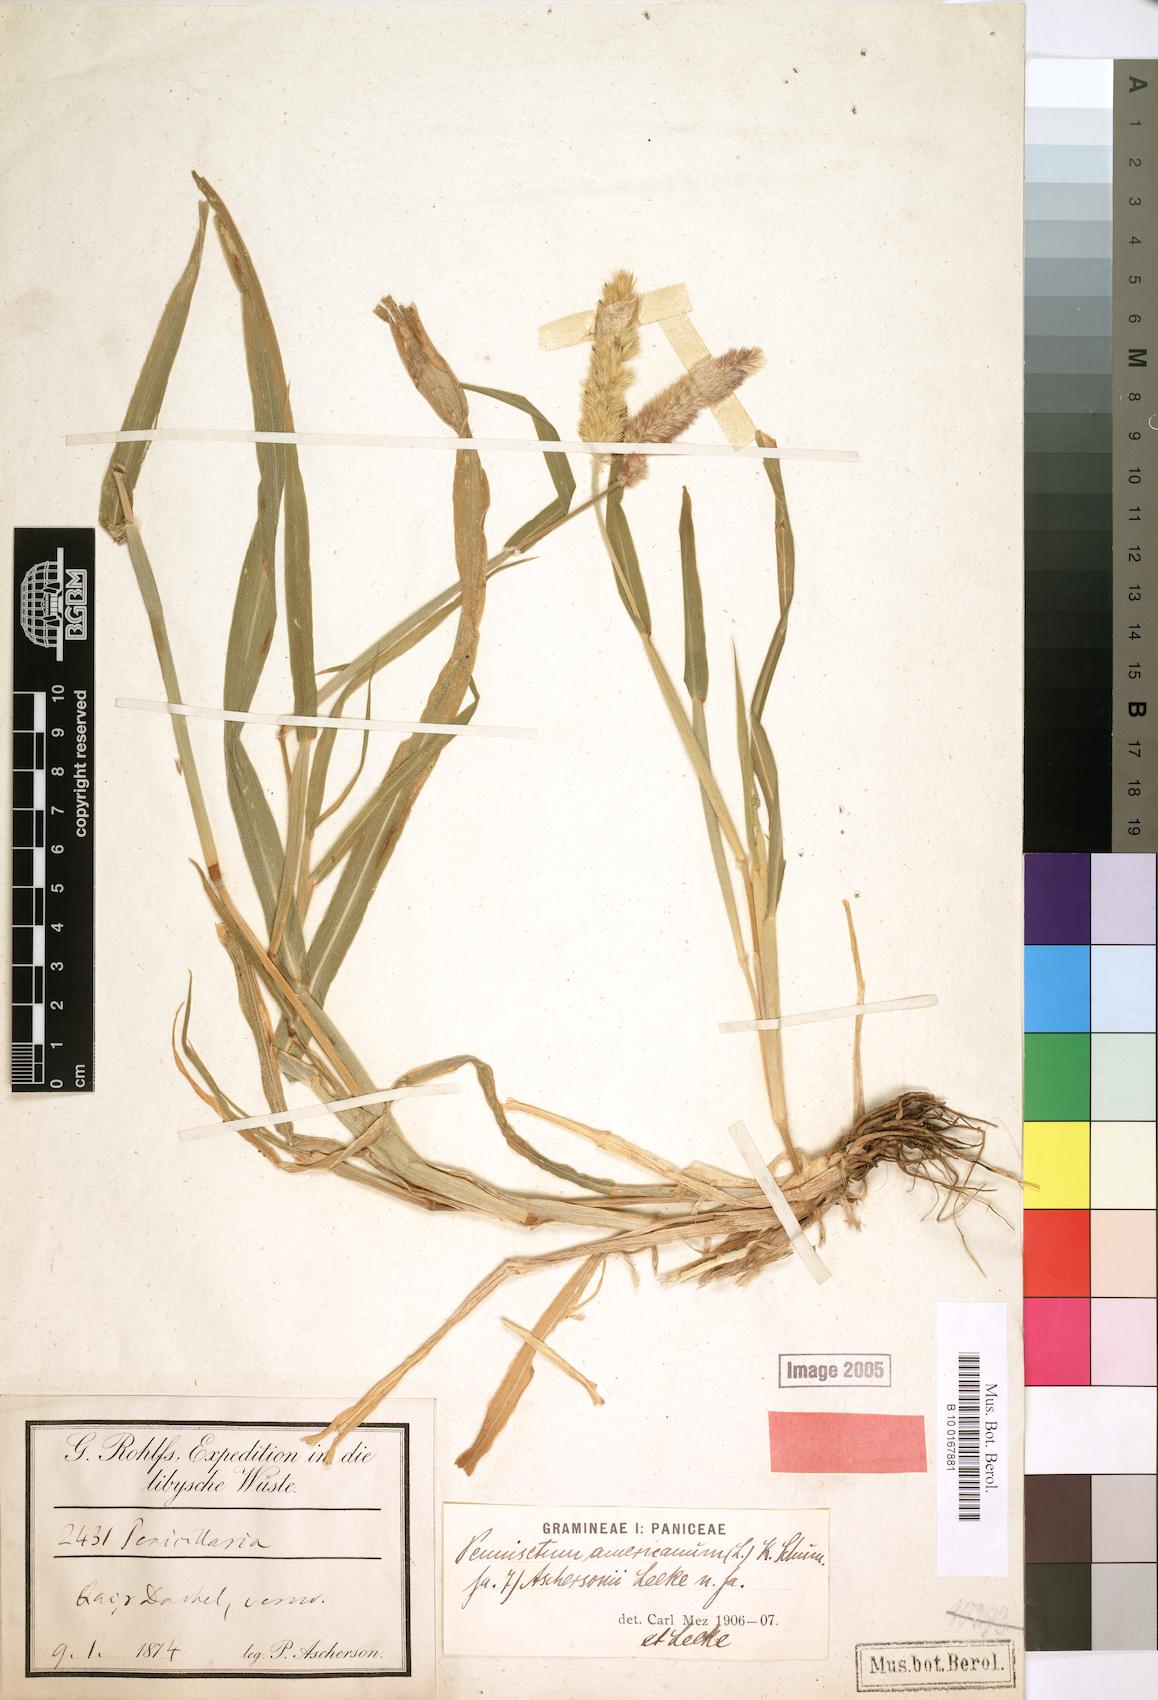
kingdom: Plantae
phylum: Tracheophyta
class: Liliopsida
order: Poales
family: Poaceae
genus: Cenchrus
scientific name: Cenchrus americanus
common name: Pearl millet
